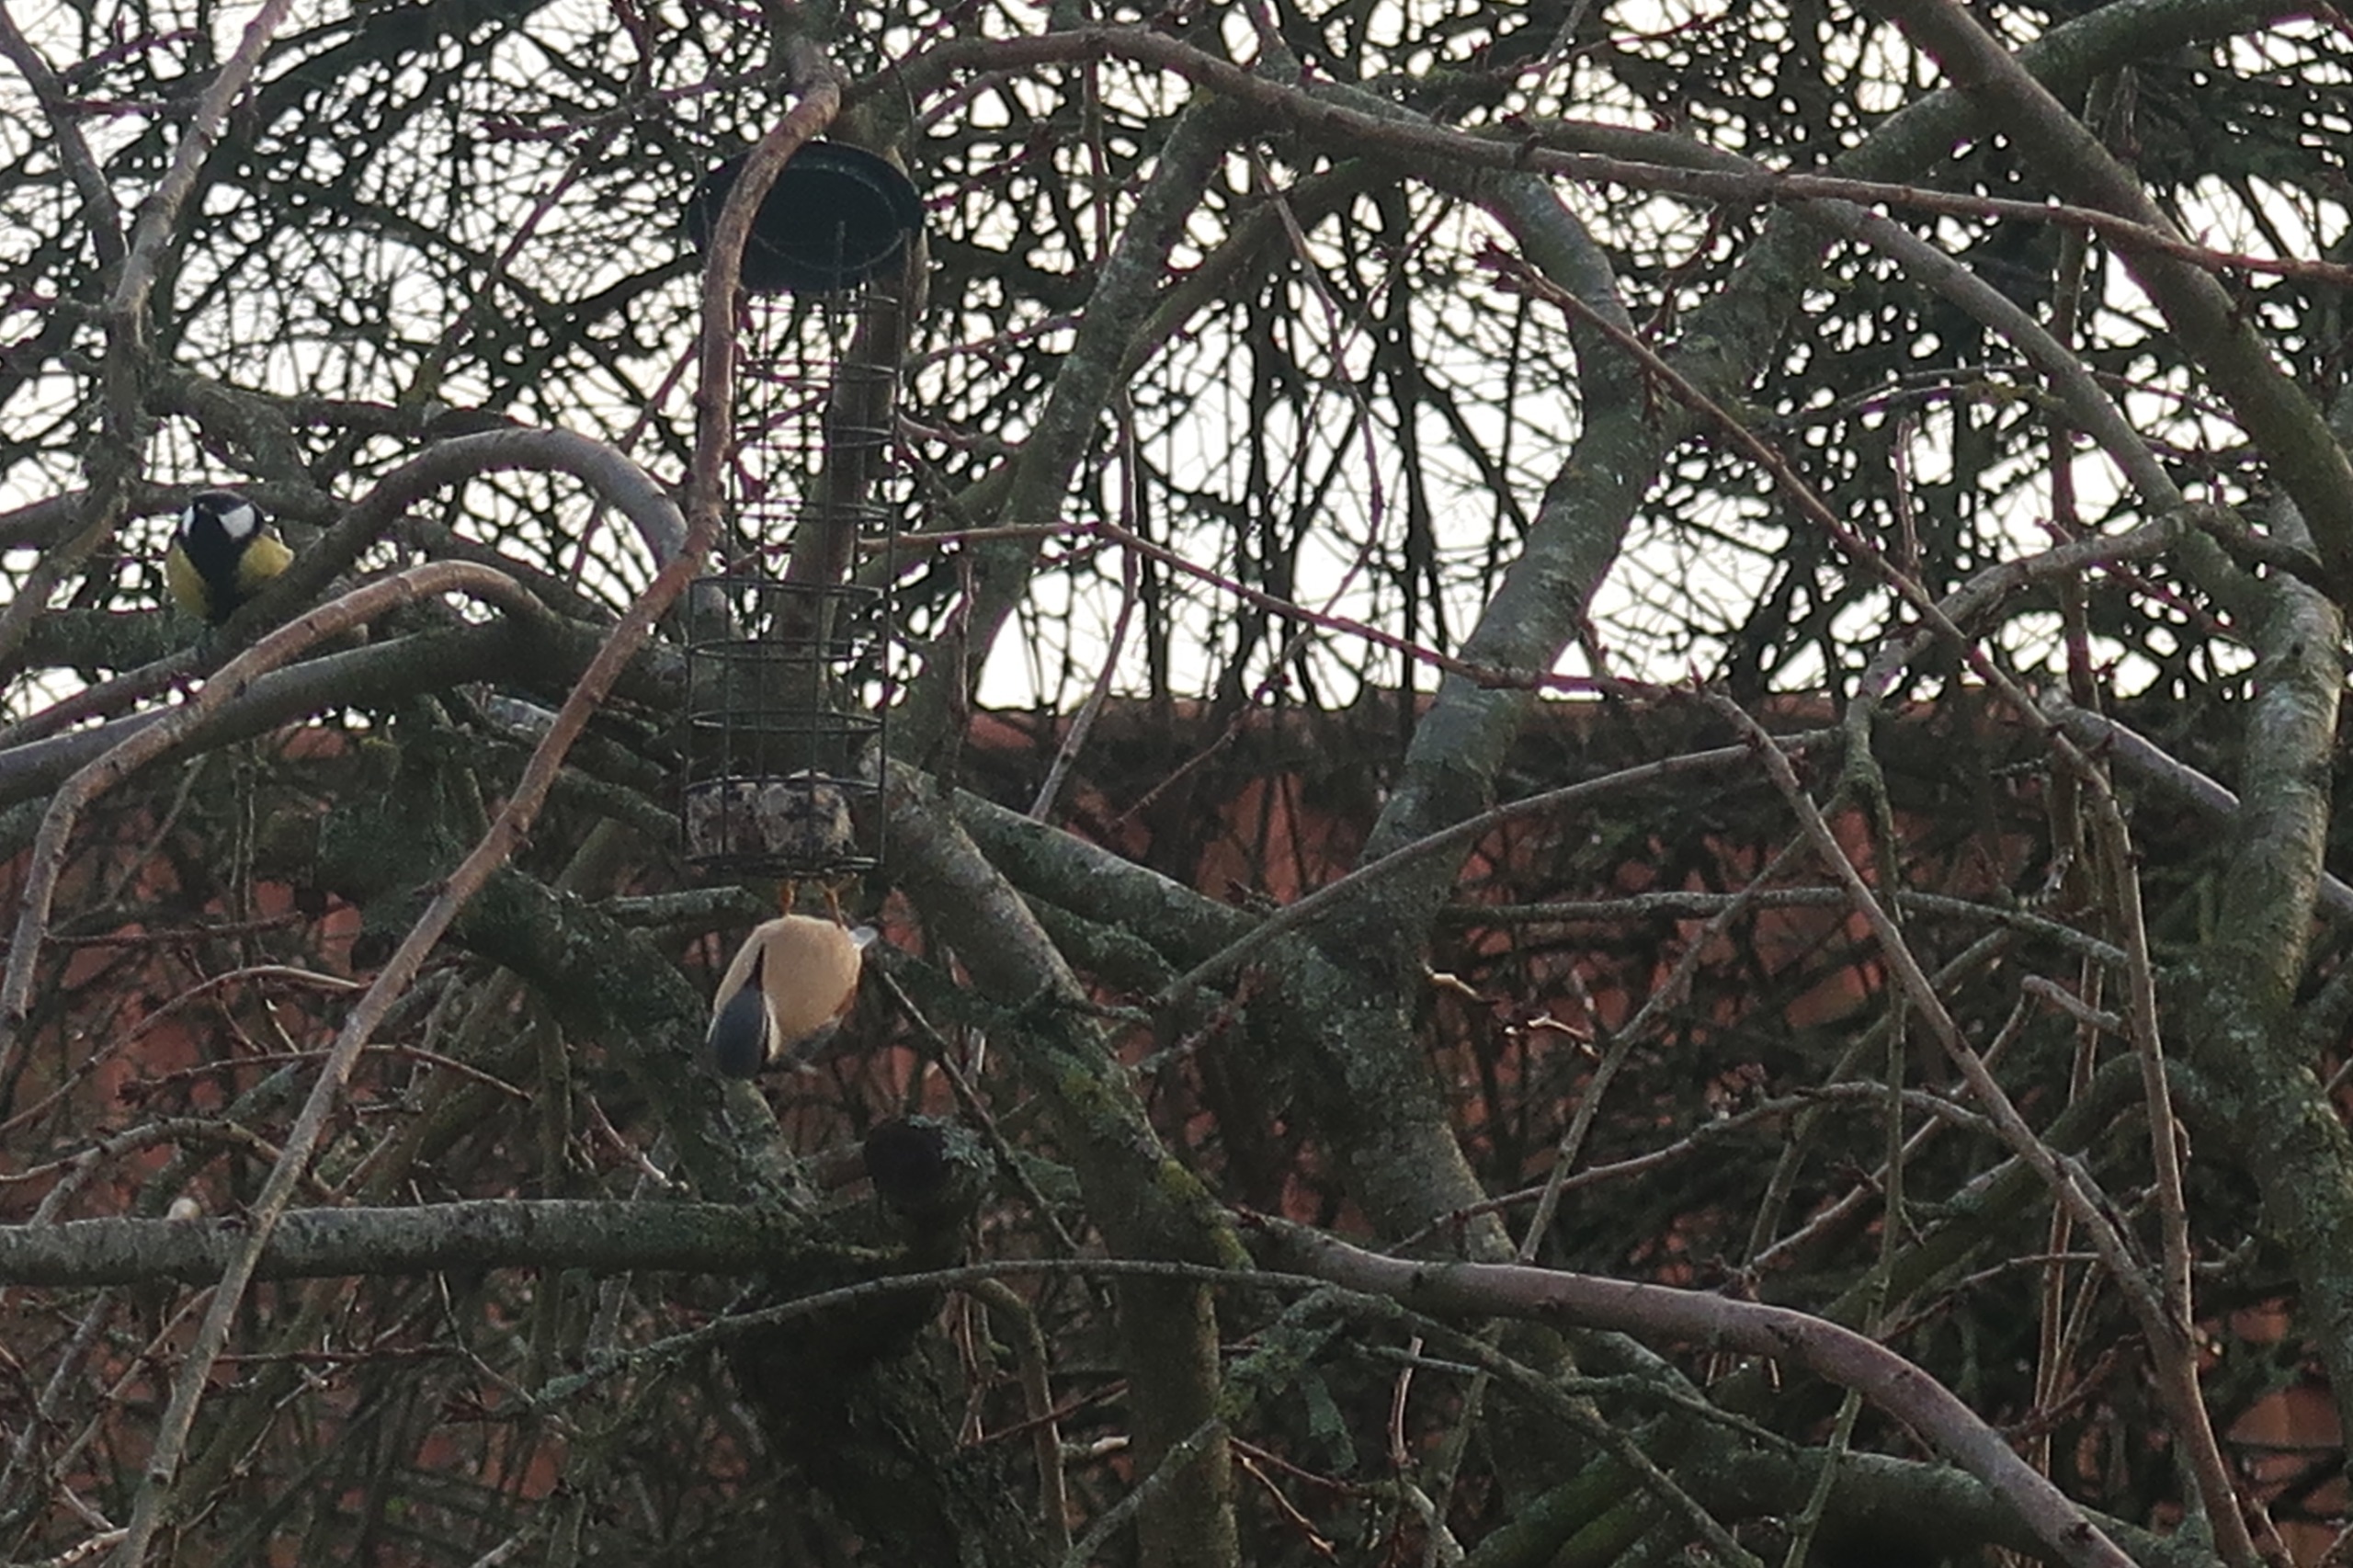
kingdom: Animalia
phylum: Chordata
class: Aves
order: Passeriformes
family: Sittidae
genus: Sitta
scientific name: Sitta europaea
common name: Spætmejse
